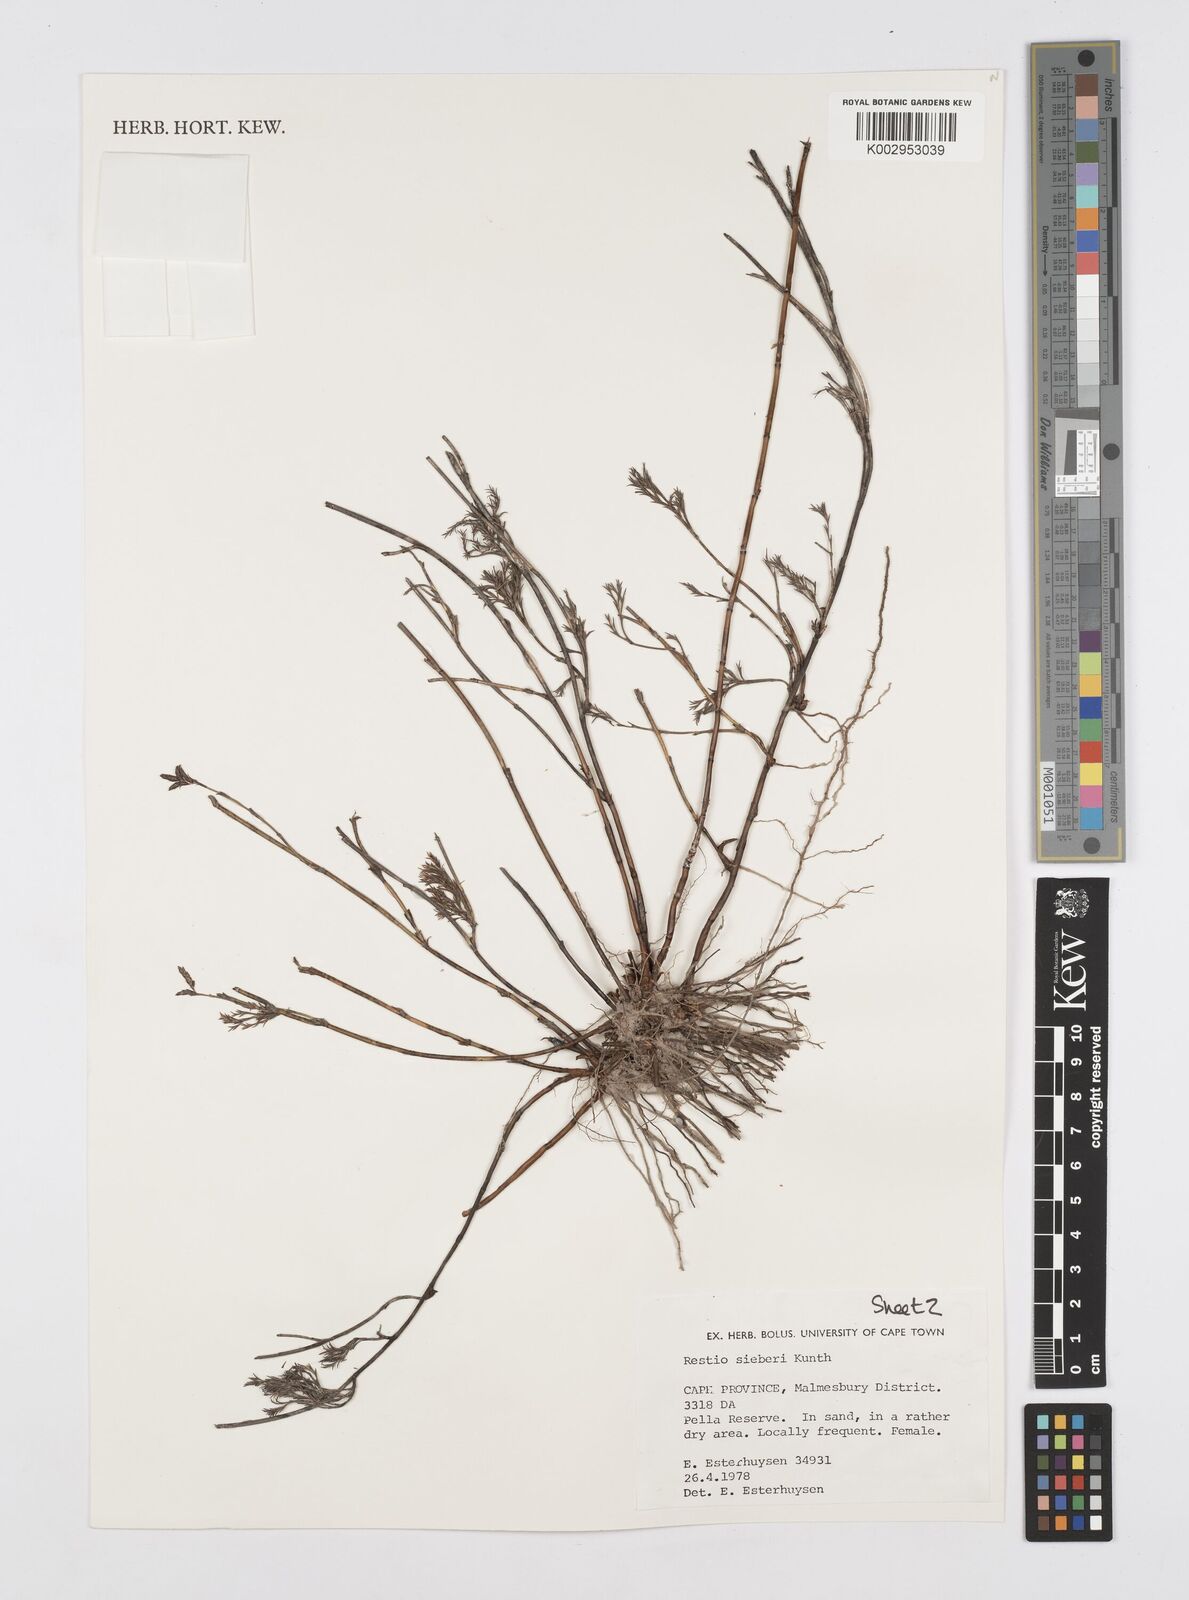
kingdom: Plantae
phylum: Tracheophyta
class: Liliopsida
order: Poales
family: Restionaceae
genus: Restio
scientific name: Restio sieberi
